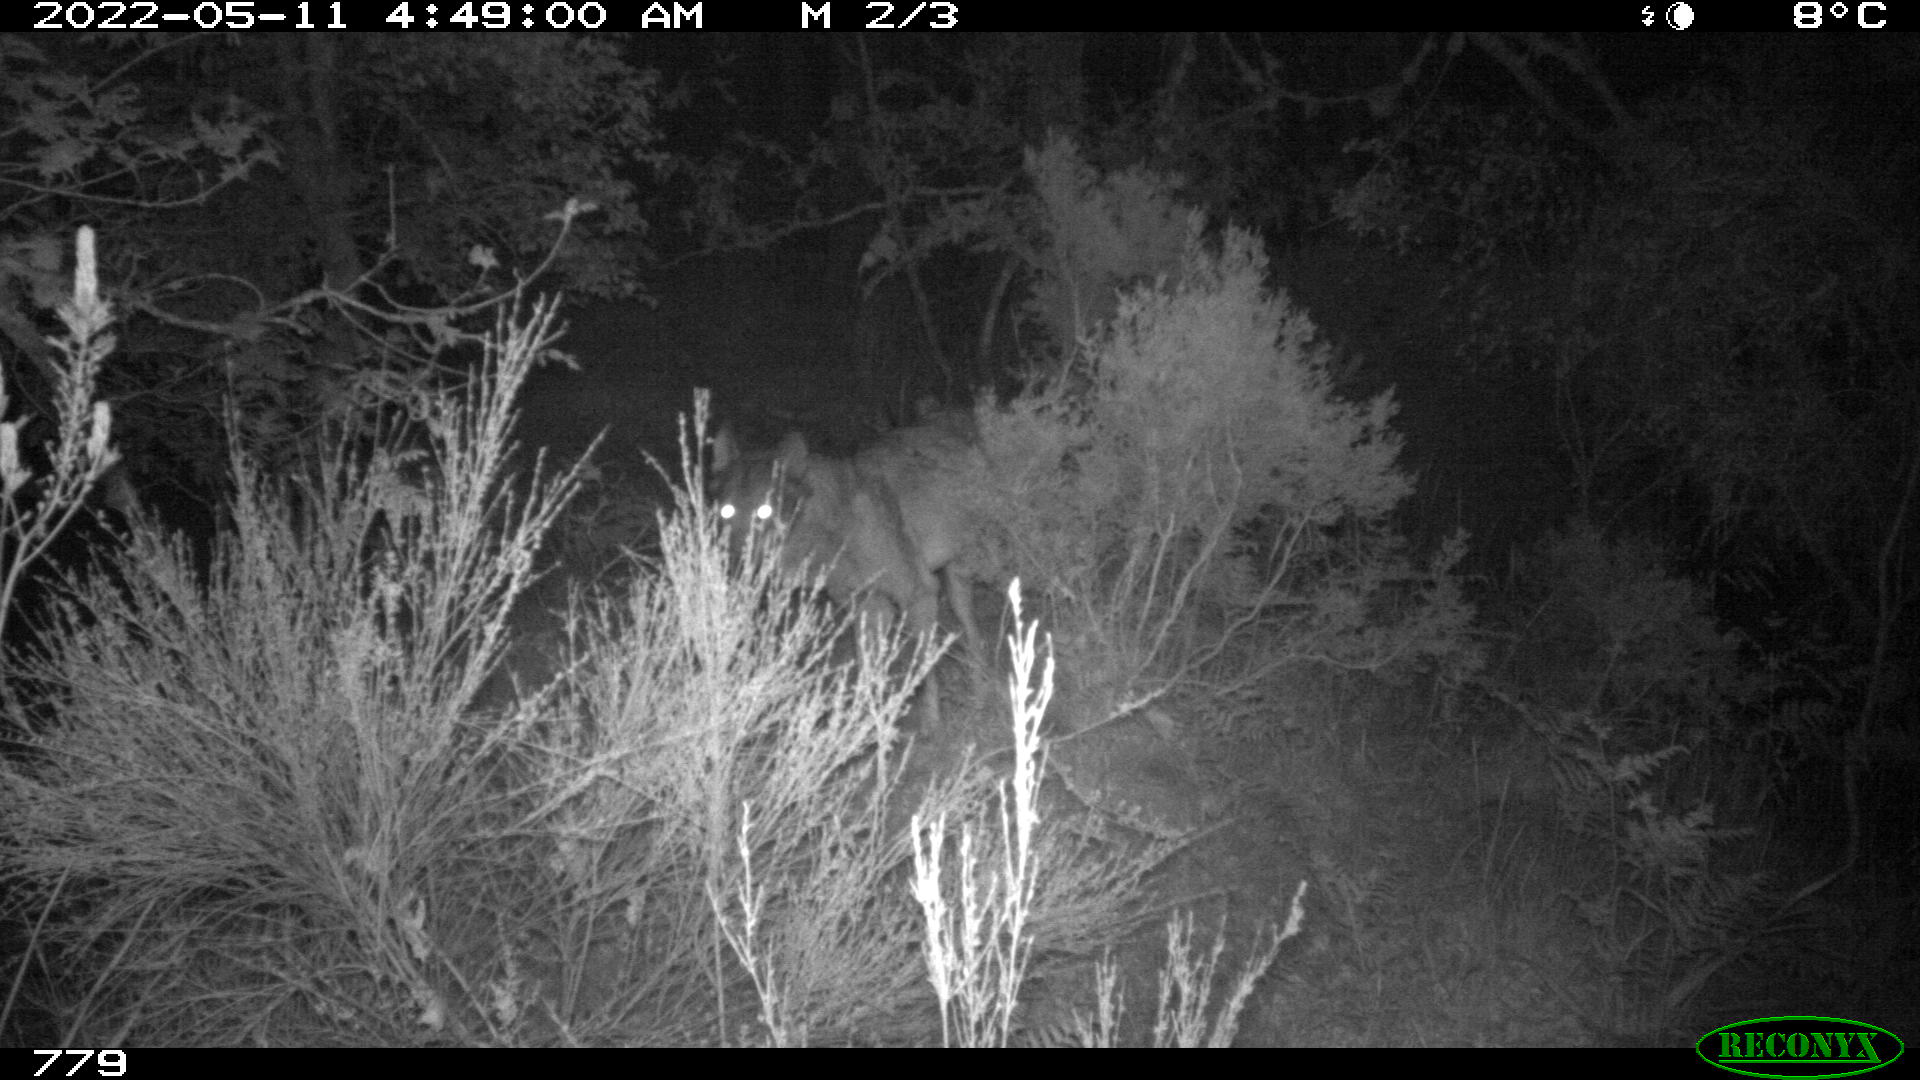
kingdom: Animalia
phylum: Chordata
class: Mammalia
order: Carnivora
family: Canidae
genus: Canis
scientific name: Canis lupus
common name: Gray wolf
